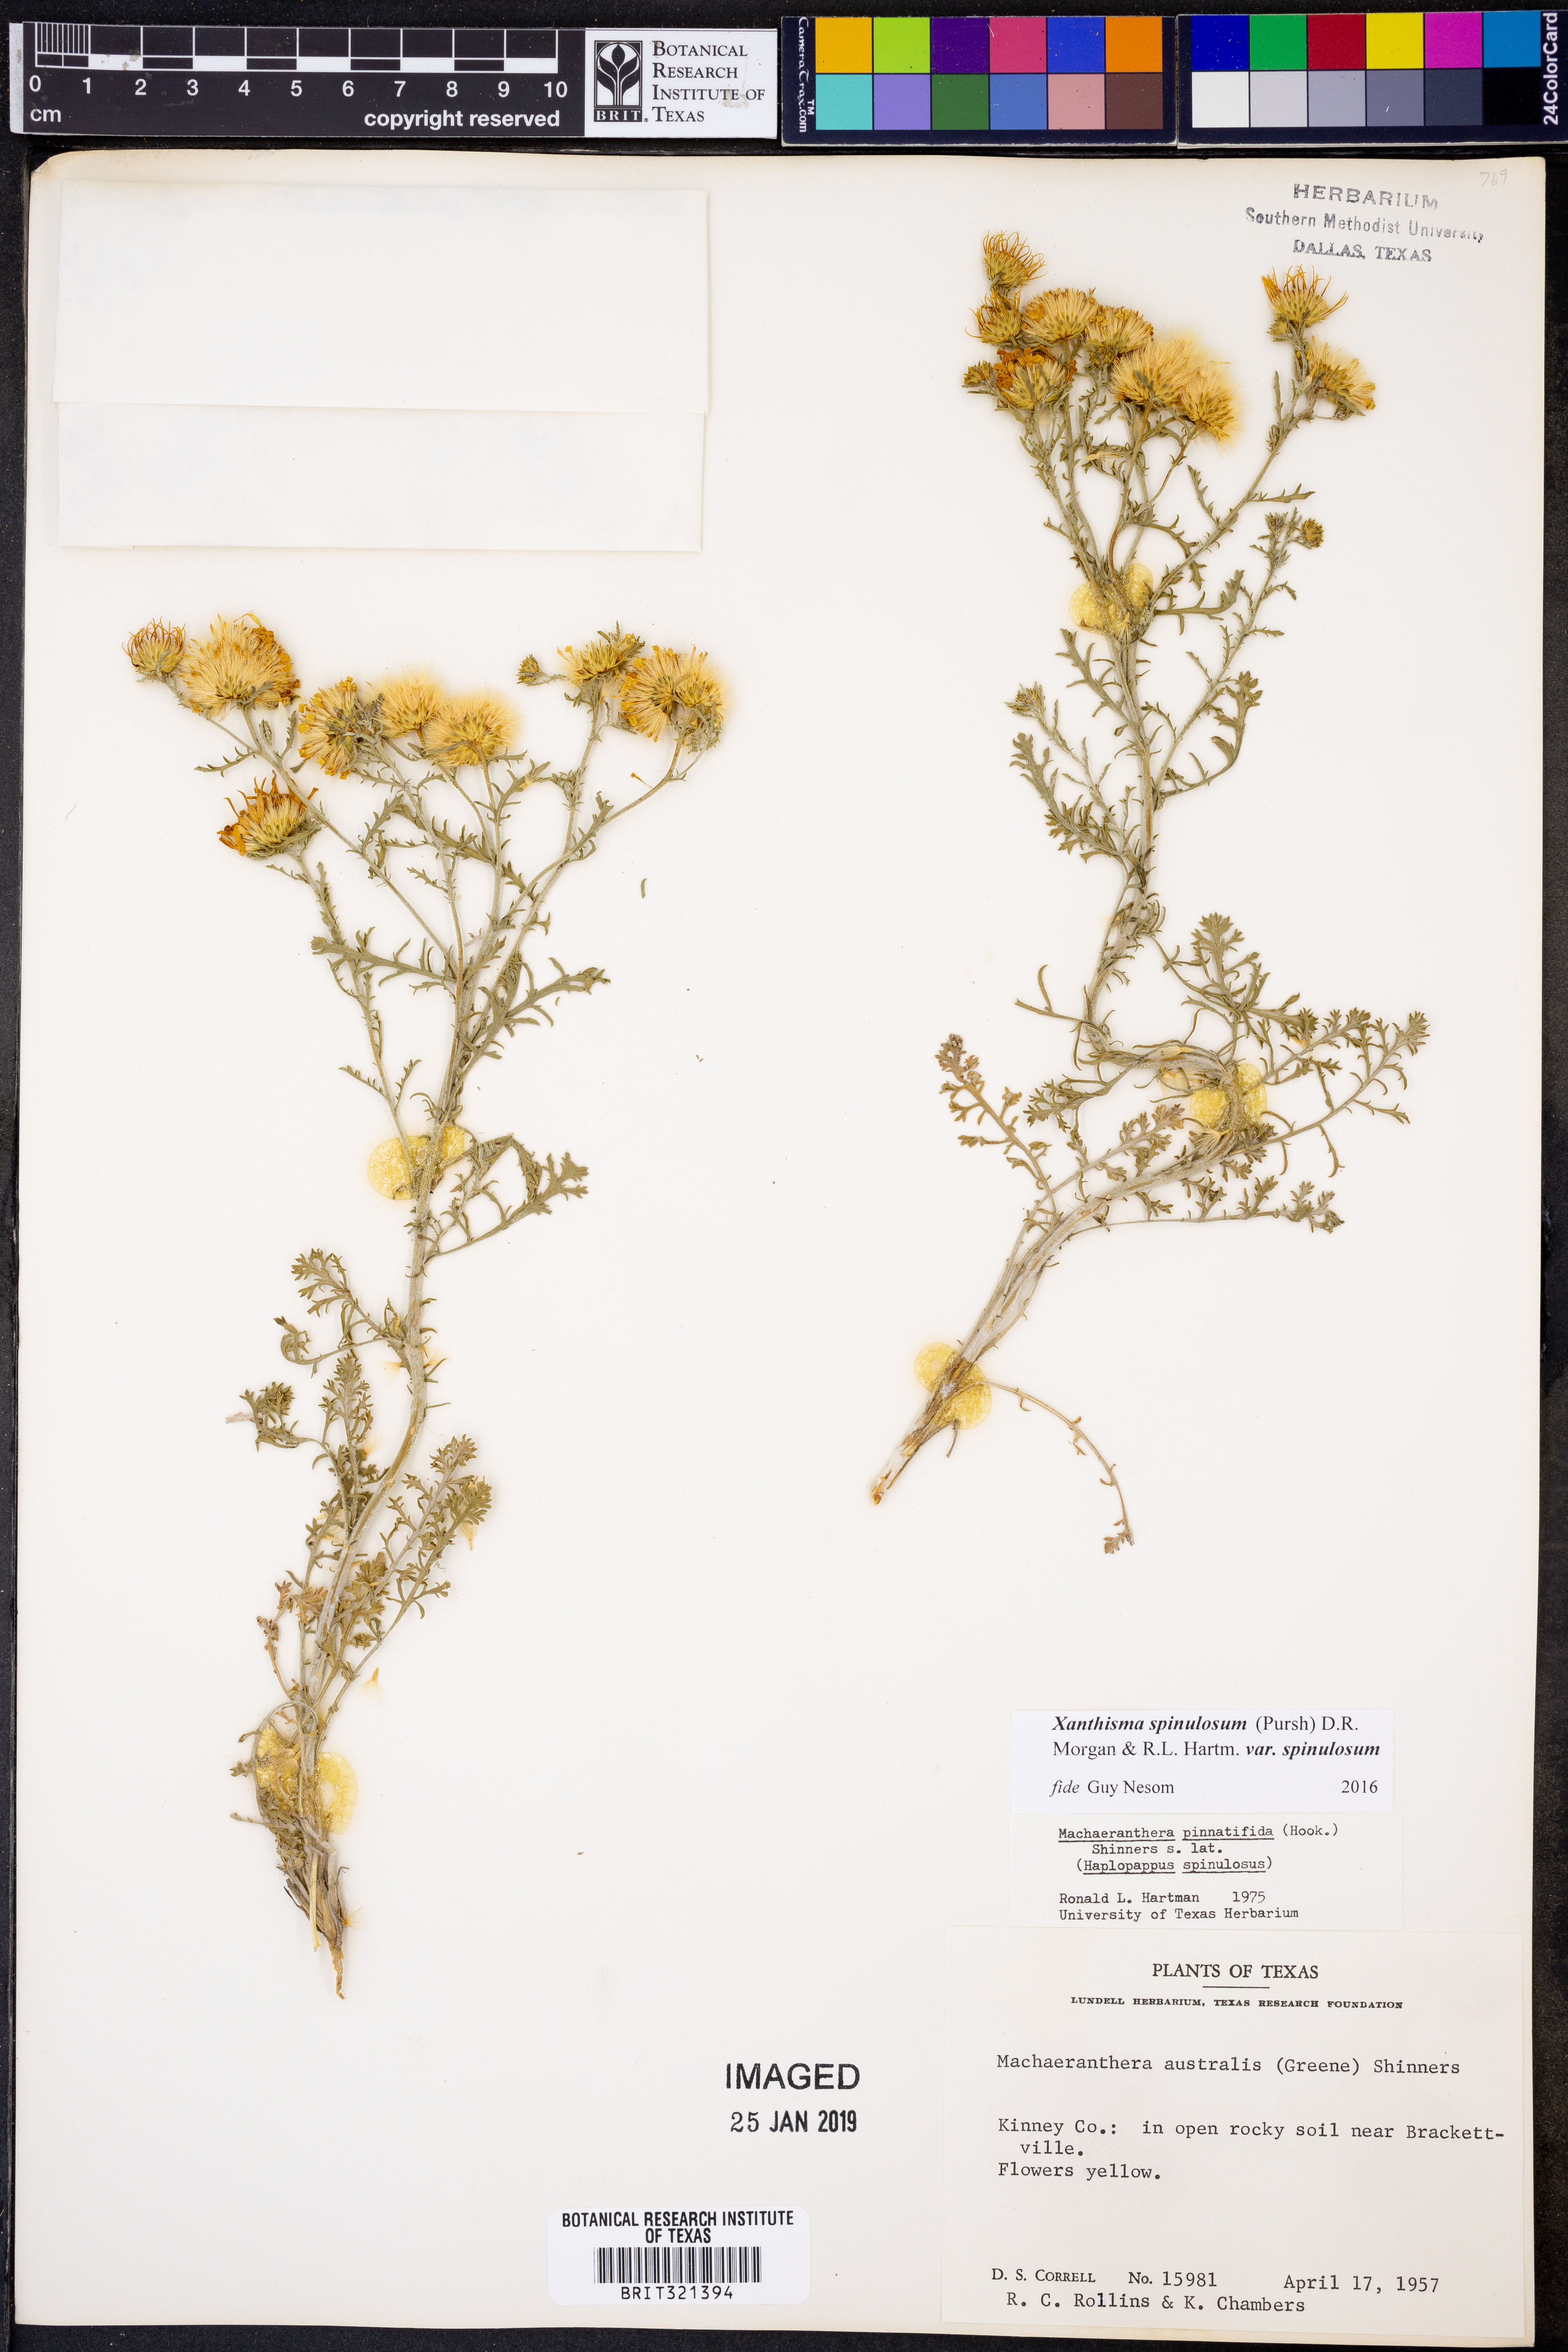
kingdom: Plantae
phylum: Tracheophyta
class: Magnoliopsida
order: Asterales
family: Asteraceae
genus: Xanthisma
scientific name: Xanthisma spinulosum
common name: Spiny goldenweed
